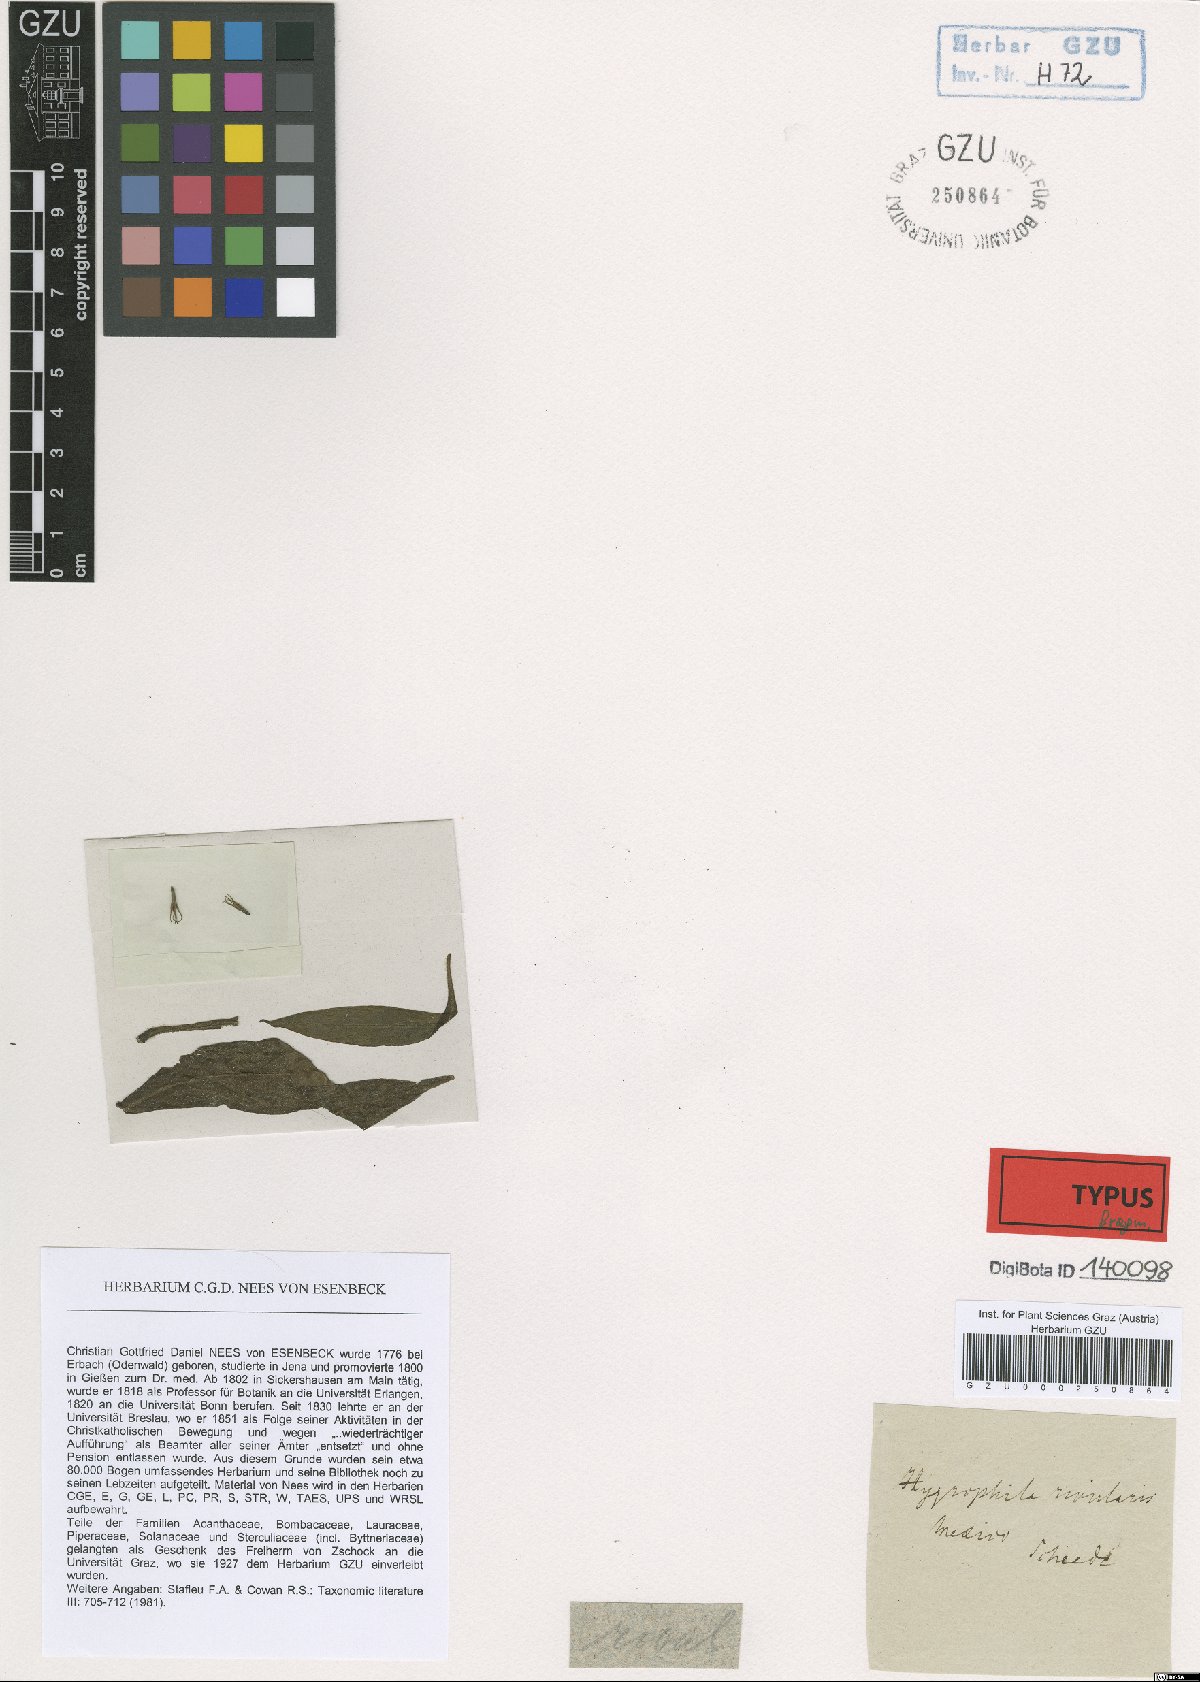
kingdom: Plantae
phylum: Tracheophyta
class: Magnoliopsida
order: Lamiales
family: Acanthaceae
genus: Hygrophila
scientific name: Hygrophila costata
